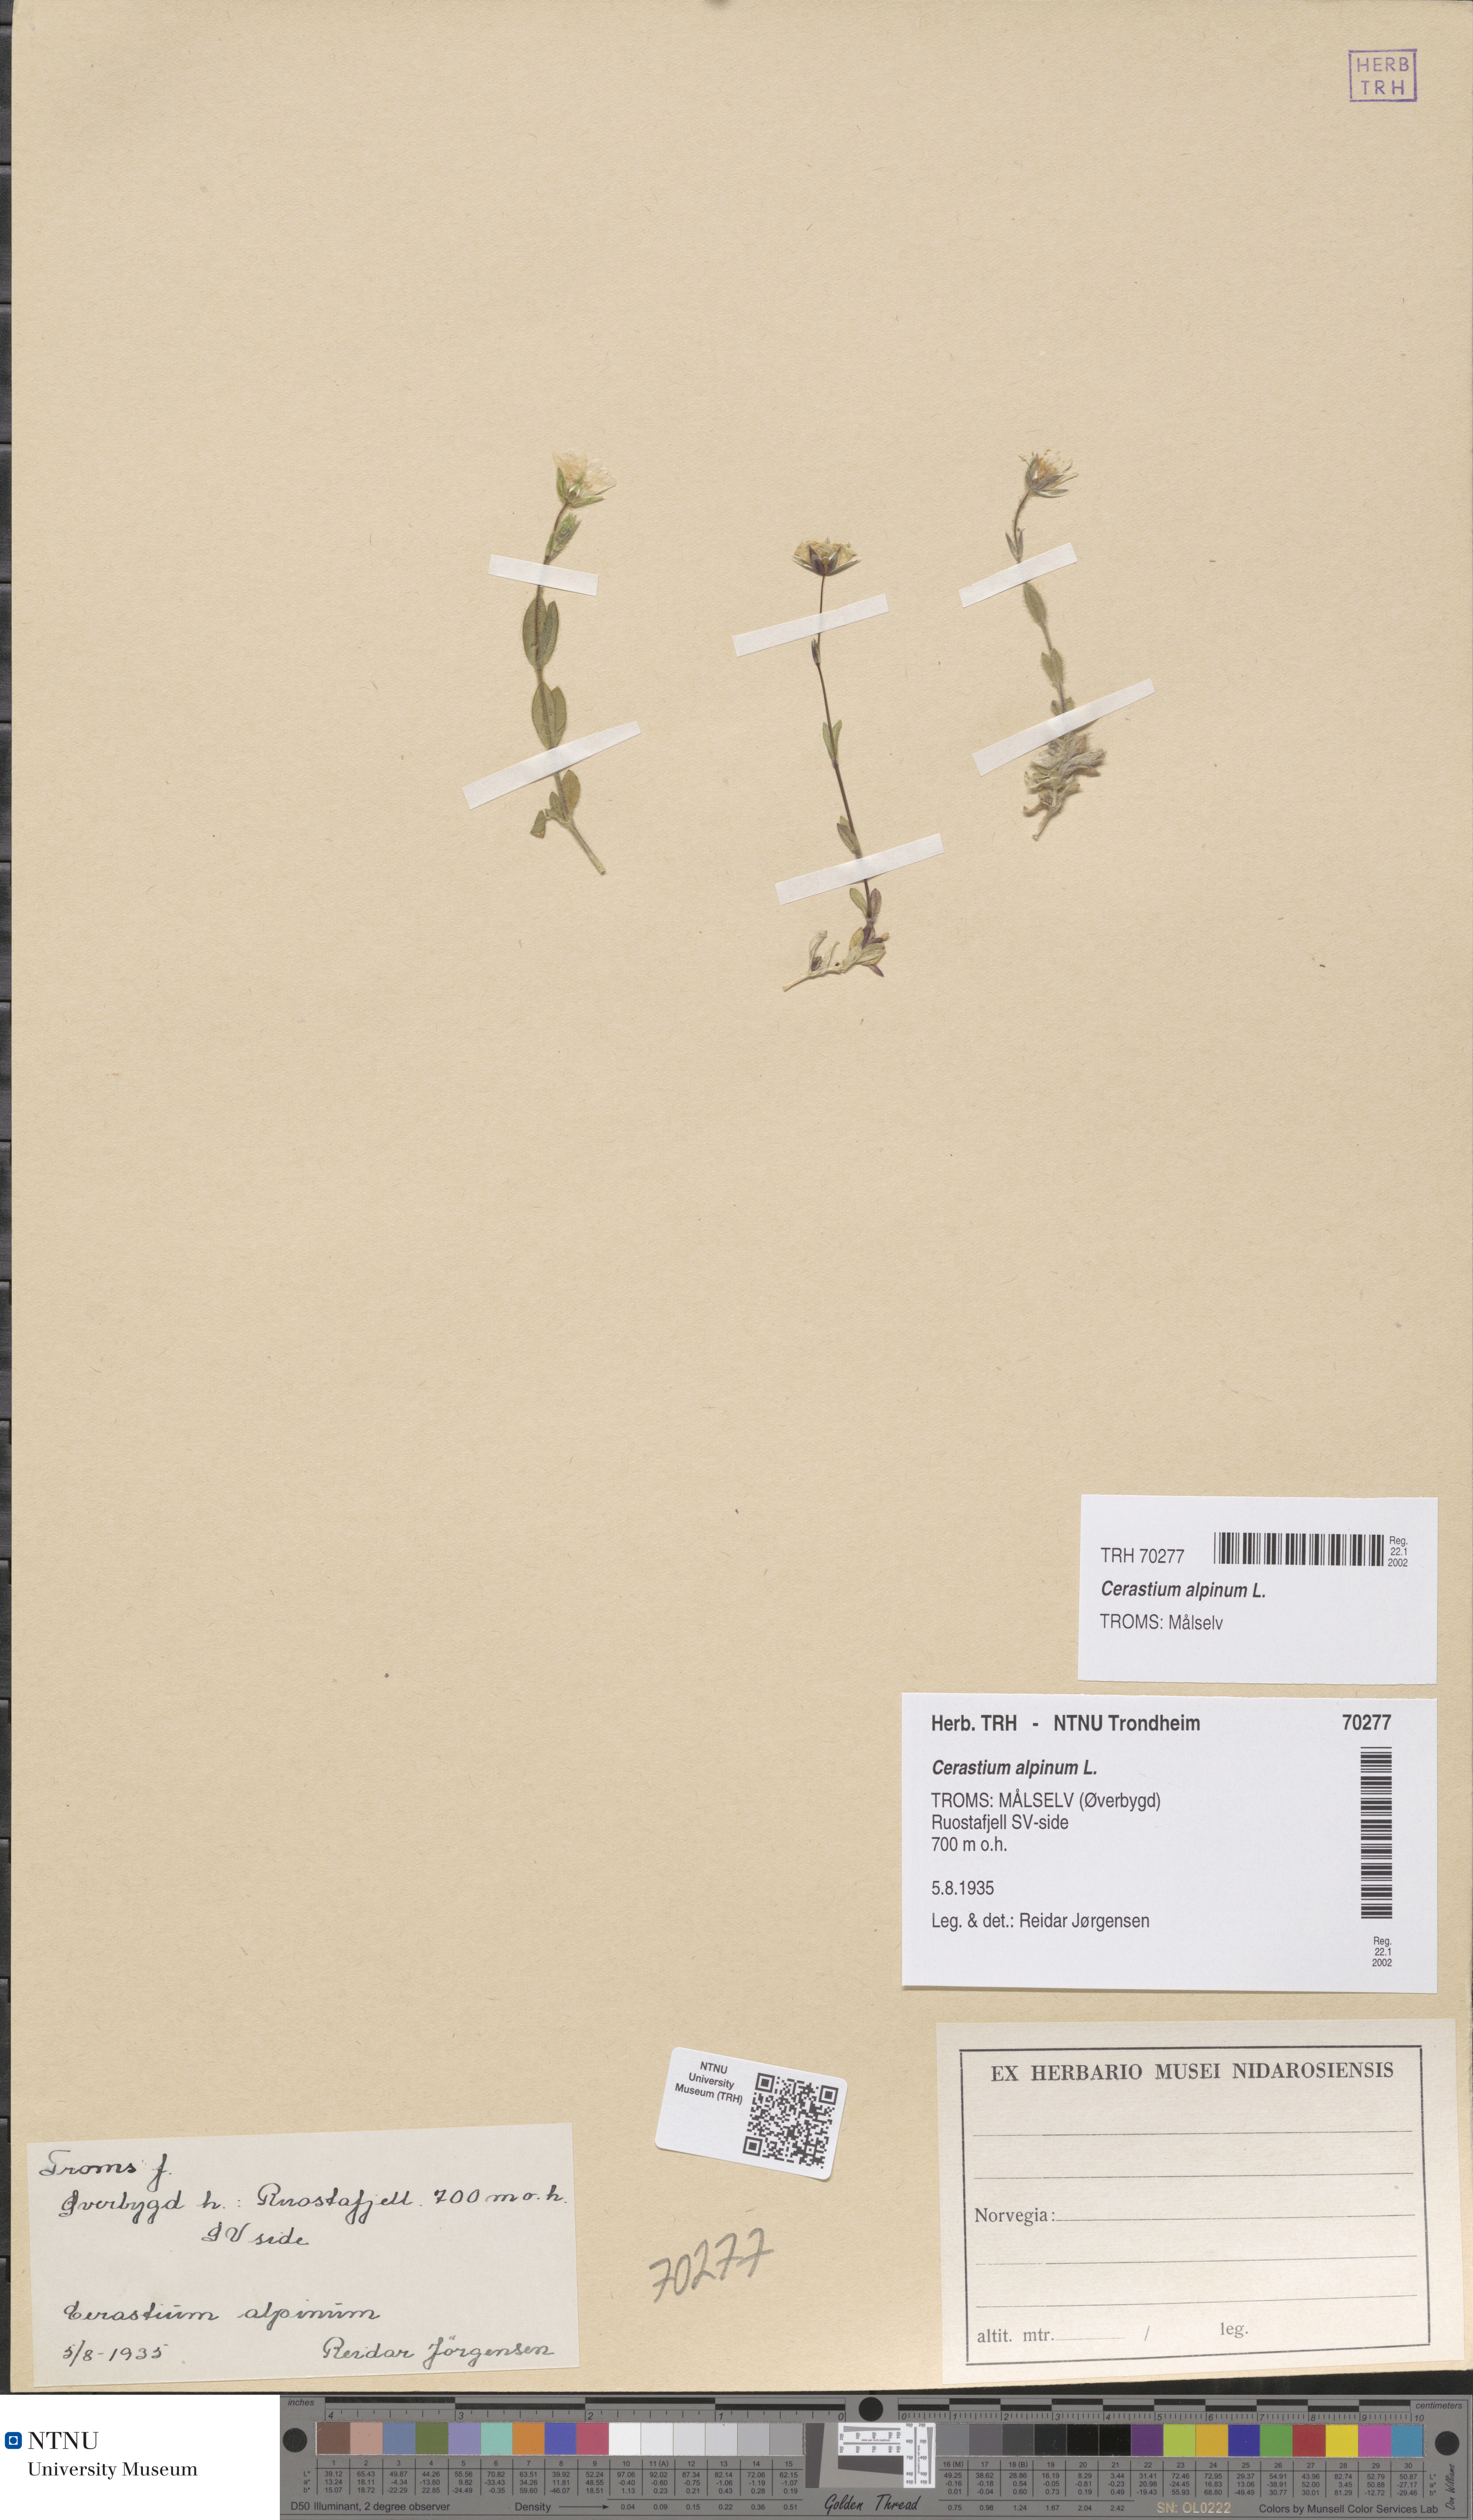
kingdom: Plantae
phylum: Tracheophyta
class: Magnoliopsida
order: Caryophyllales
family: Caryophyllaceae
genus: Cerastium
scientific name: Cerastium alpinum
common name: Alpine mouse-ear
